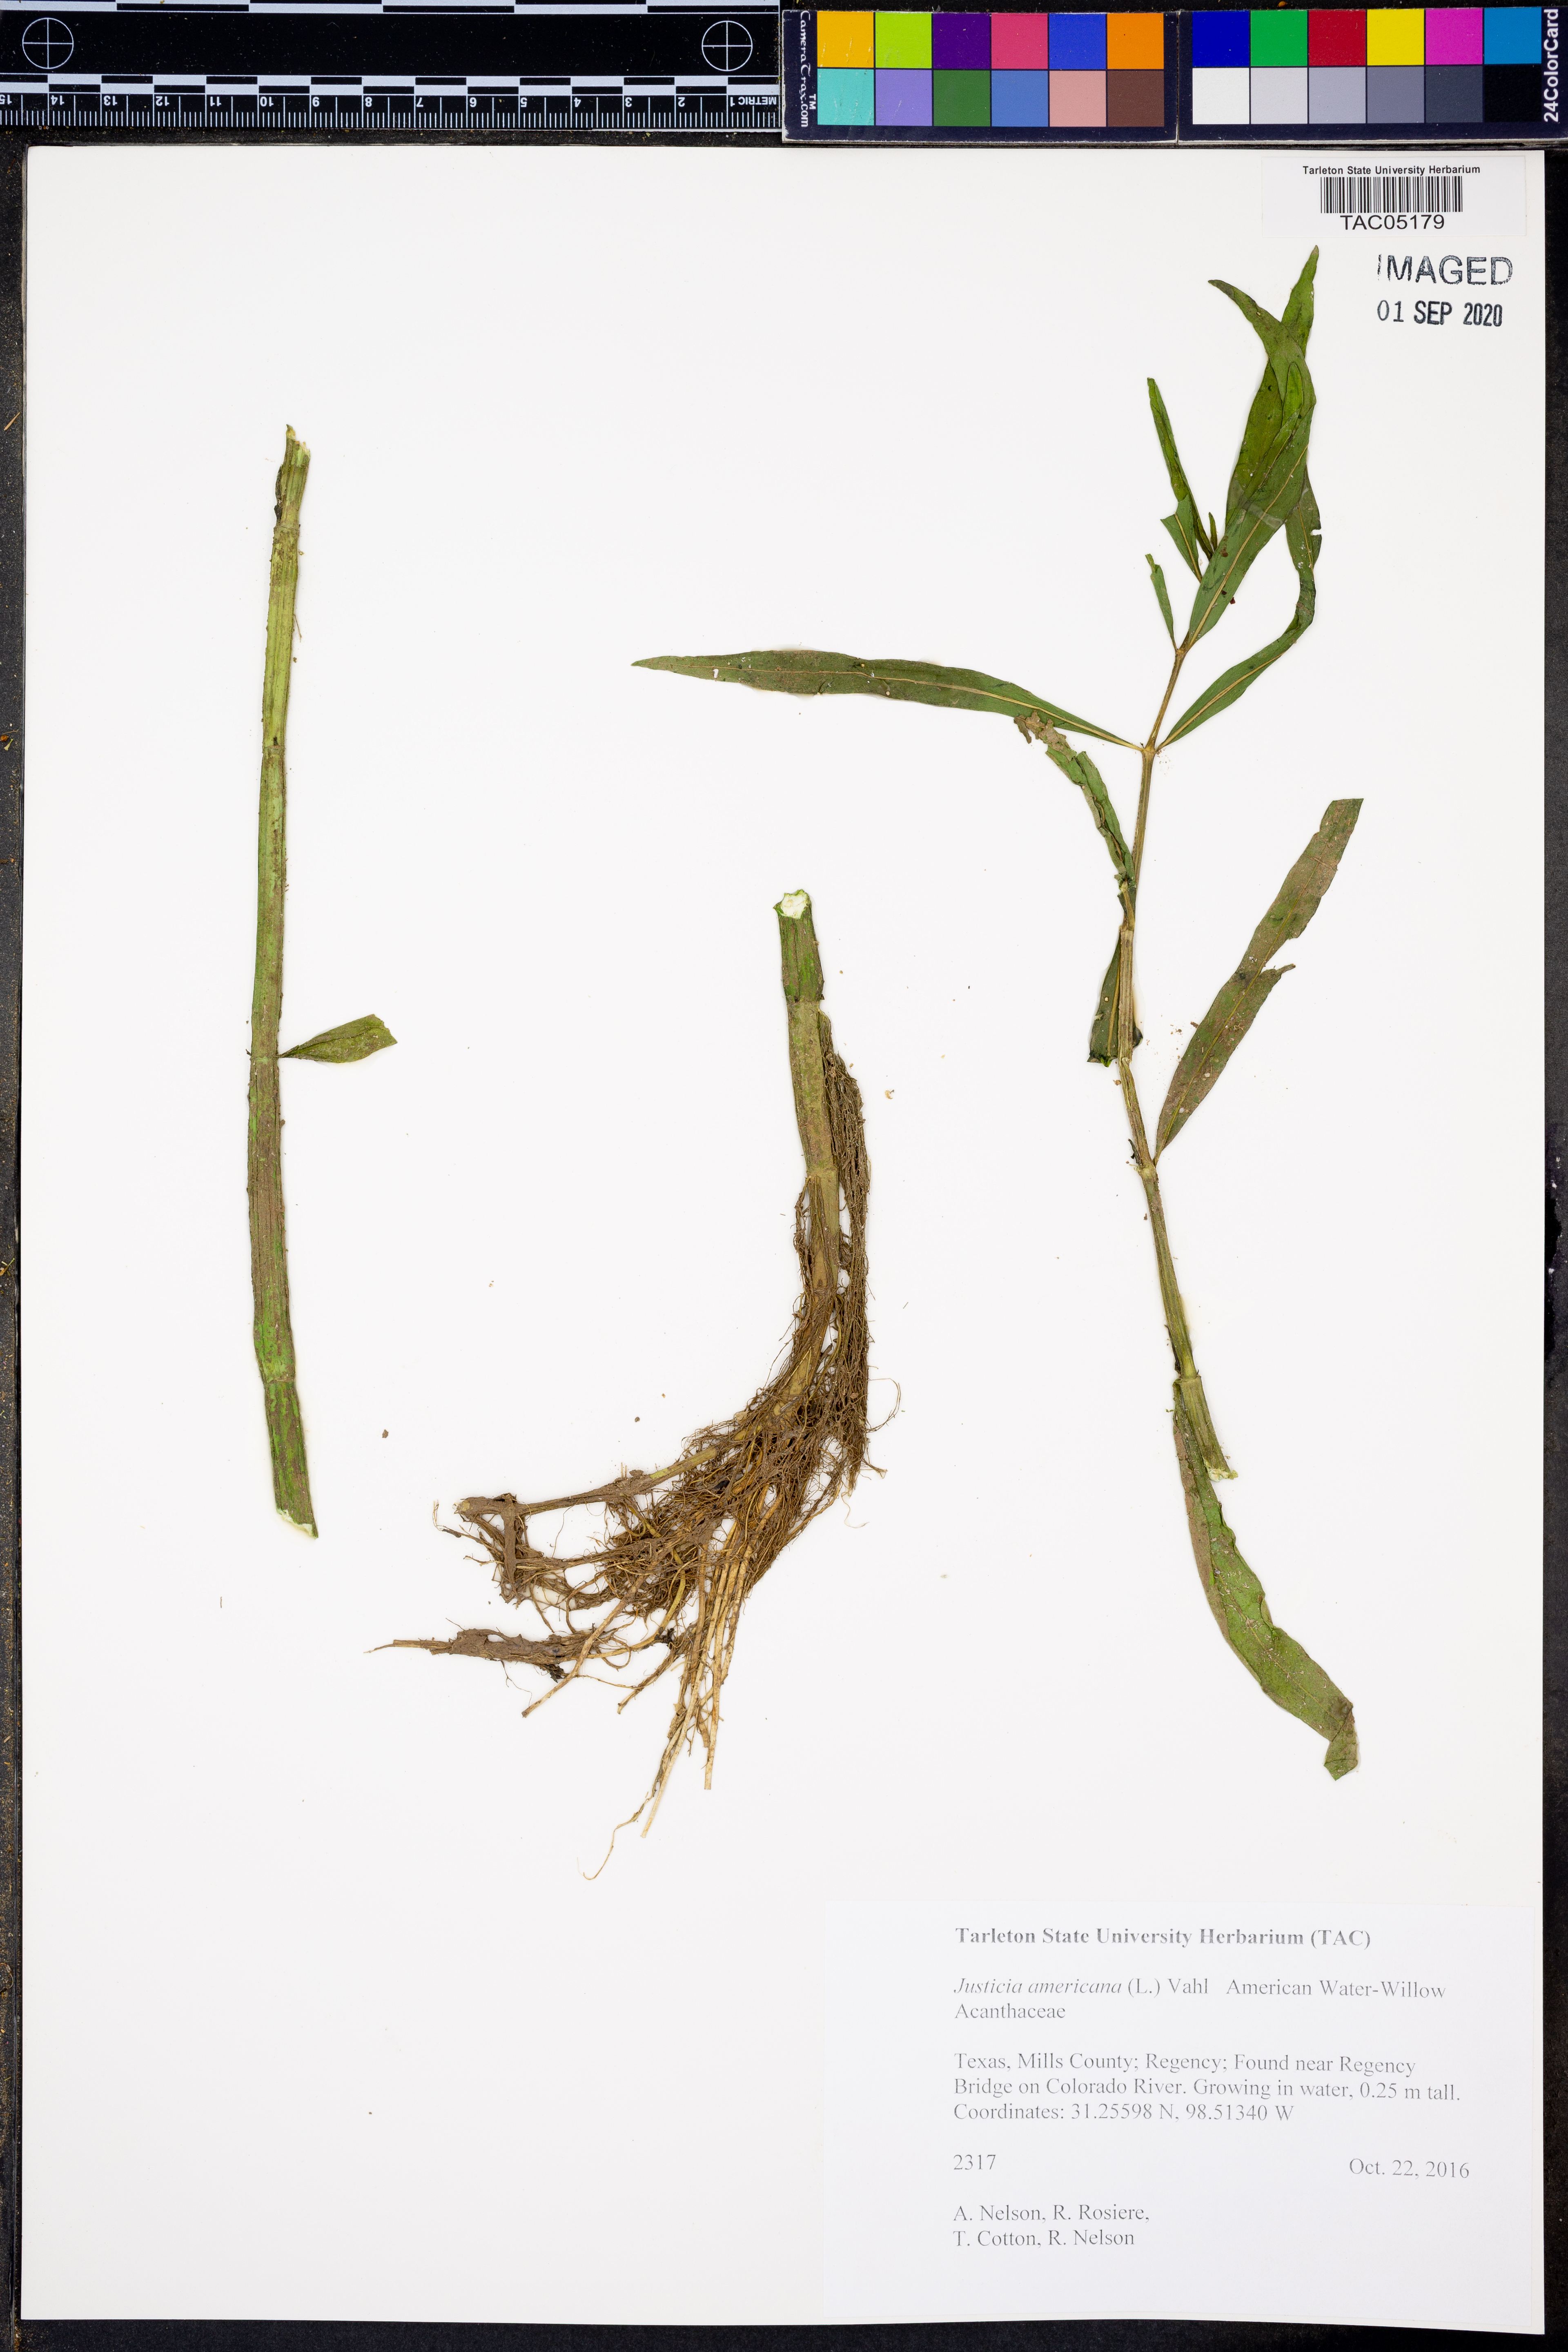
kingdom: Plantae
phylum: Tracheophyta
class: Magnoliopsida
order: Lamiales
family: Acanthaceae
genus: Dianthera
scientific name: Dianthera americana
